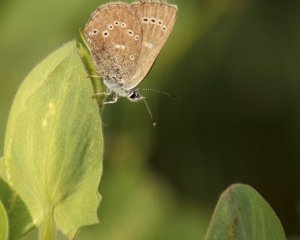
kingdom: Animalia
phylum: Arthropoda
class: Insecta
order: Lepidoptera
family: Lycaenidae
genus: Glaucopsyche
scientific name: Glaucopsyche lygdamus
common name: Silvery Blue
